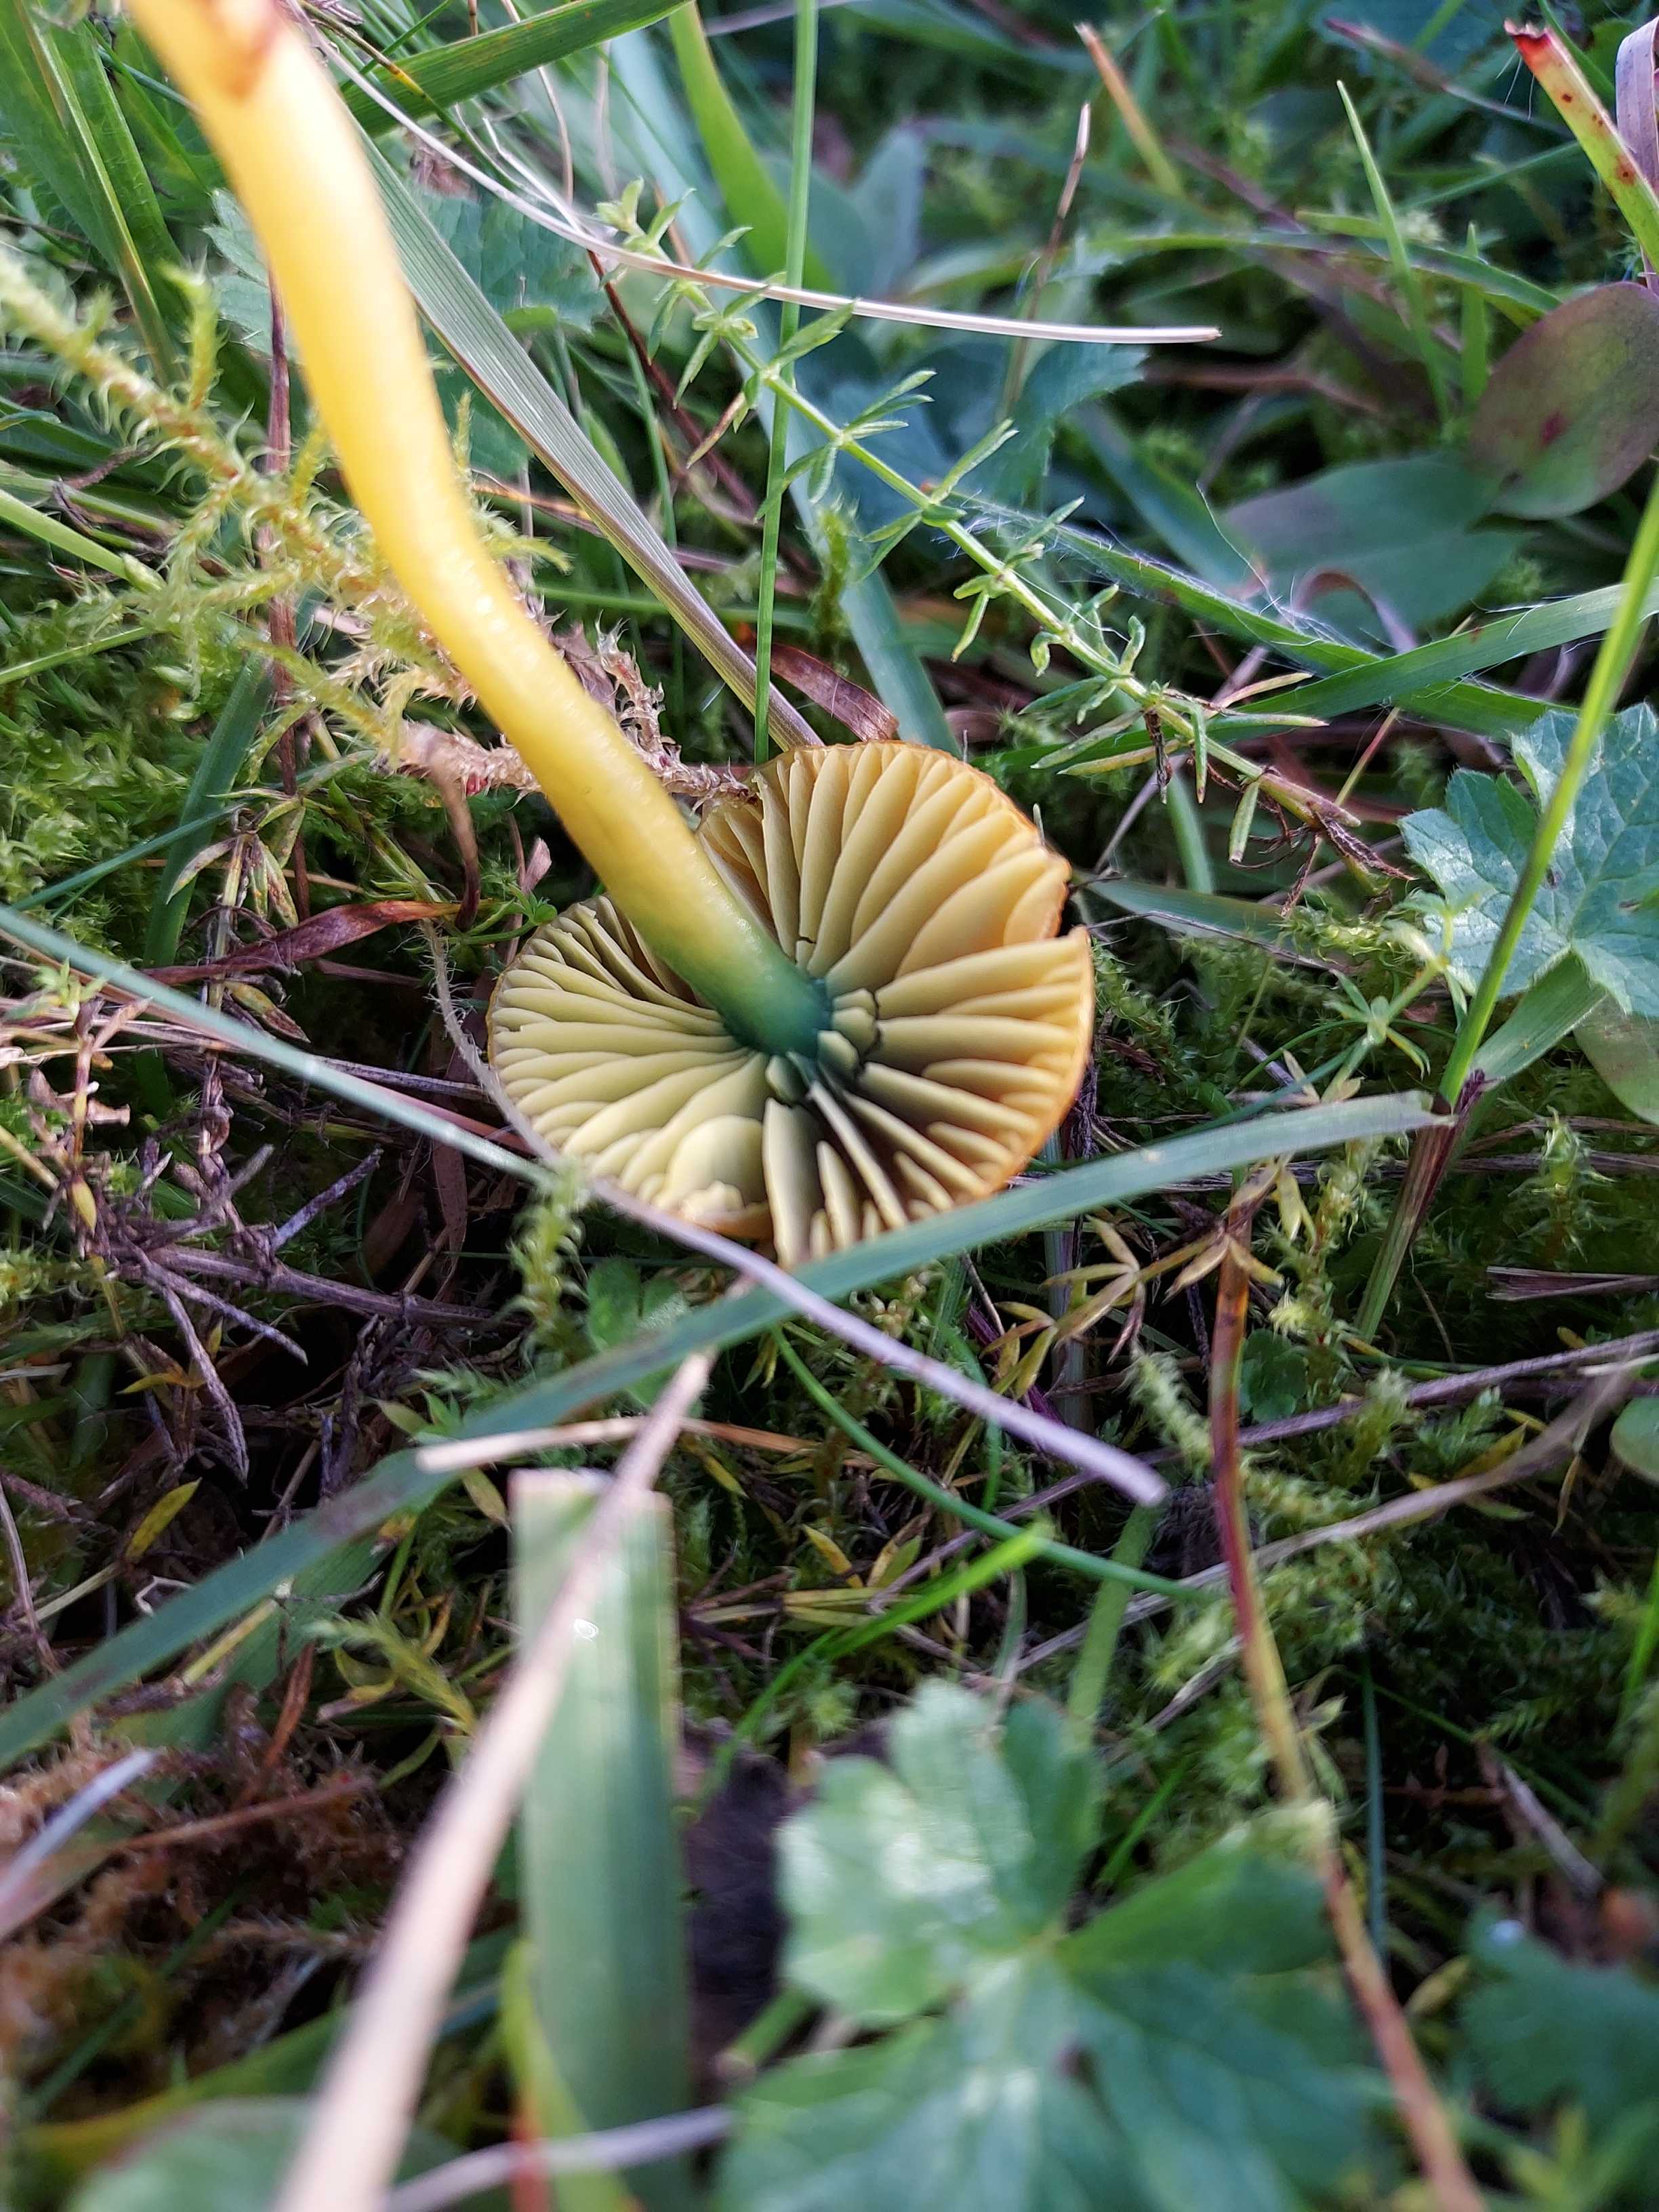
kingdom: Fungi
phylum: Basidiomycota
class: Agaricomycetes
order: Agaricales
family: Hygrophoraceae
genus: Gliophorus
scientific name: Gliophorus psittacinus
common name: papegøje-vokshat
